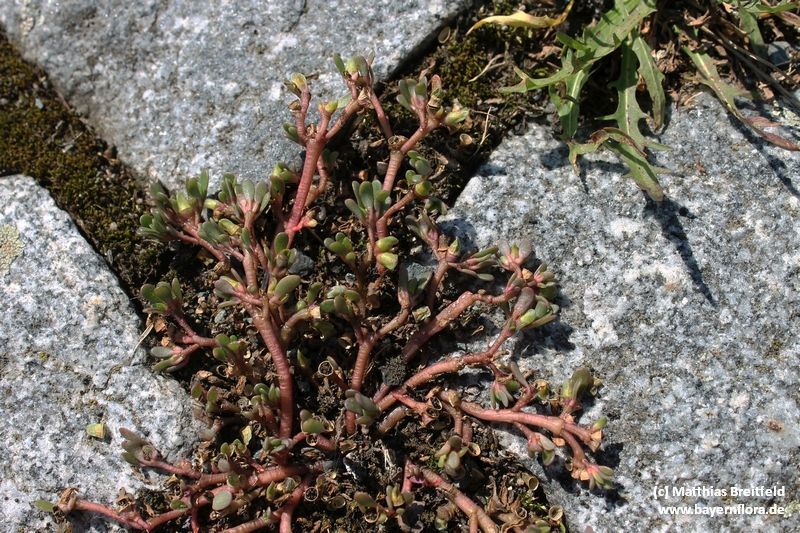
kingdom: Plantae
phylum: Tracheophyta
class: Magnoliopsida
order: Caryophyllales
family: Portulacaceae
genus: Portulaca
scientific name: Portulaca granulatostellulata
